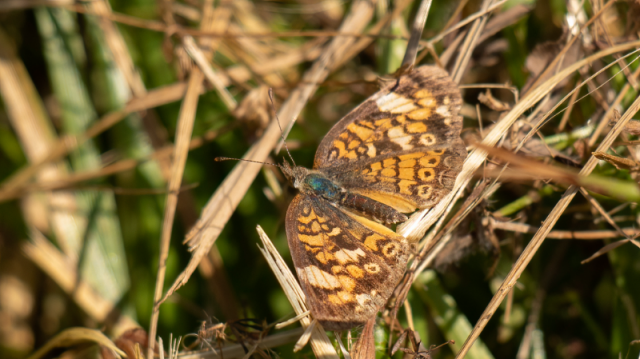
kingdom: Animalia
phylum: Arthropoda
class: Insecta
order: Lepidoptera
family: Nymphalidae
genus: Phyciodes
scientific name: Phyciodes tharos
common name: Pearl Crescent
